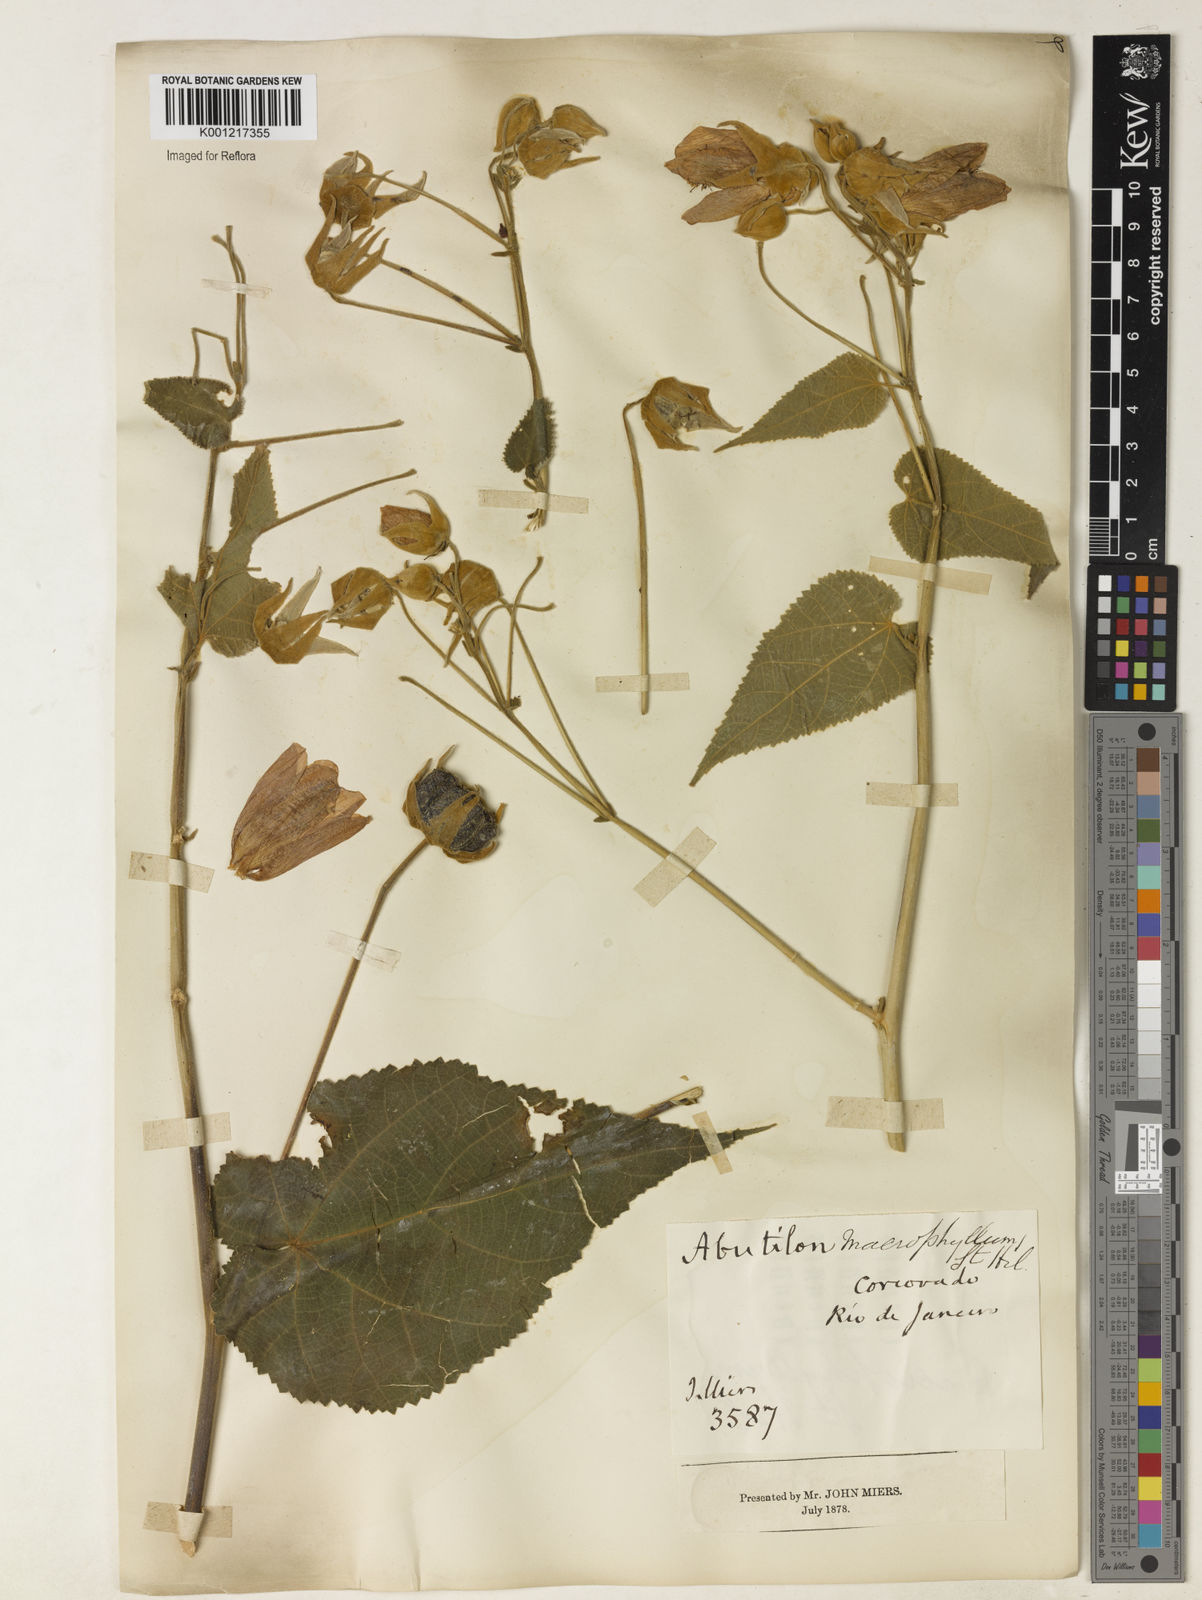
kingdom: Plantae
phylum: Tracheophyta
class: Magnoliopsida
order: Malvales
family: Malvaceae
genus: Callianthe
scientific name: Callianthe sellowiana
